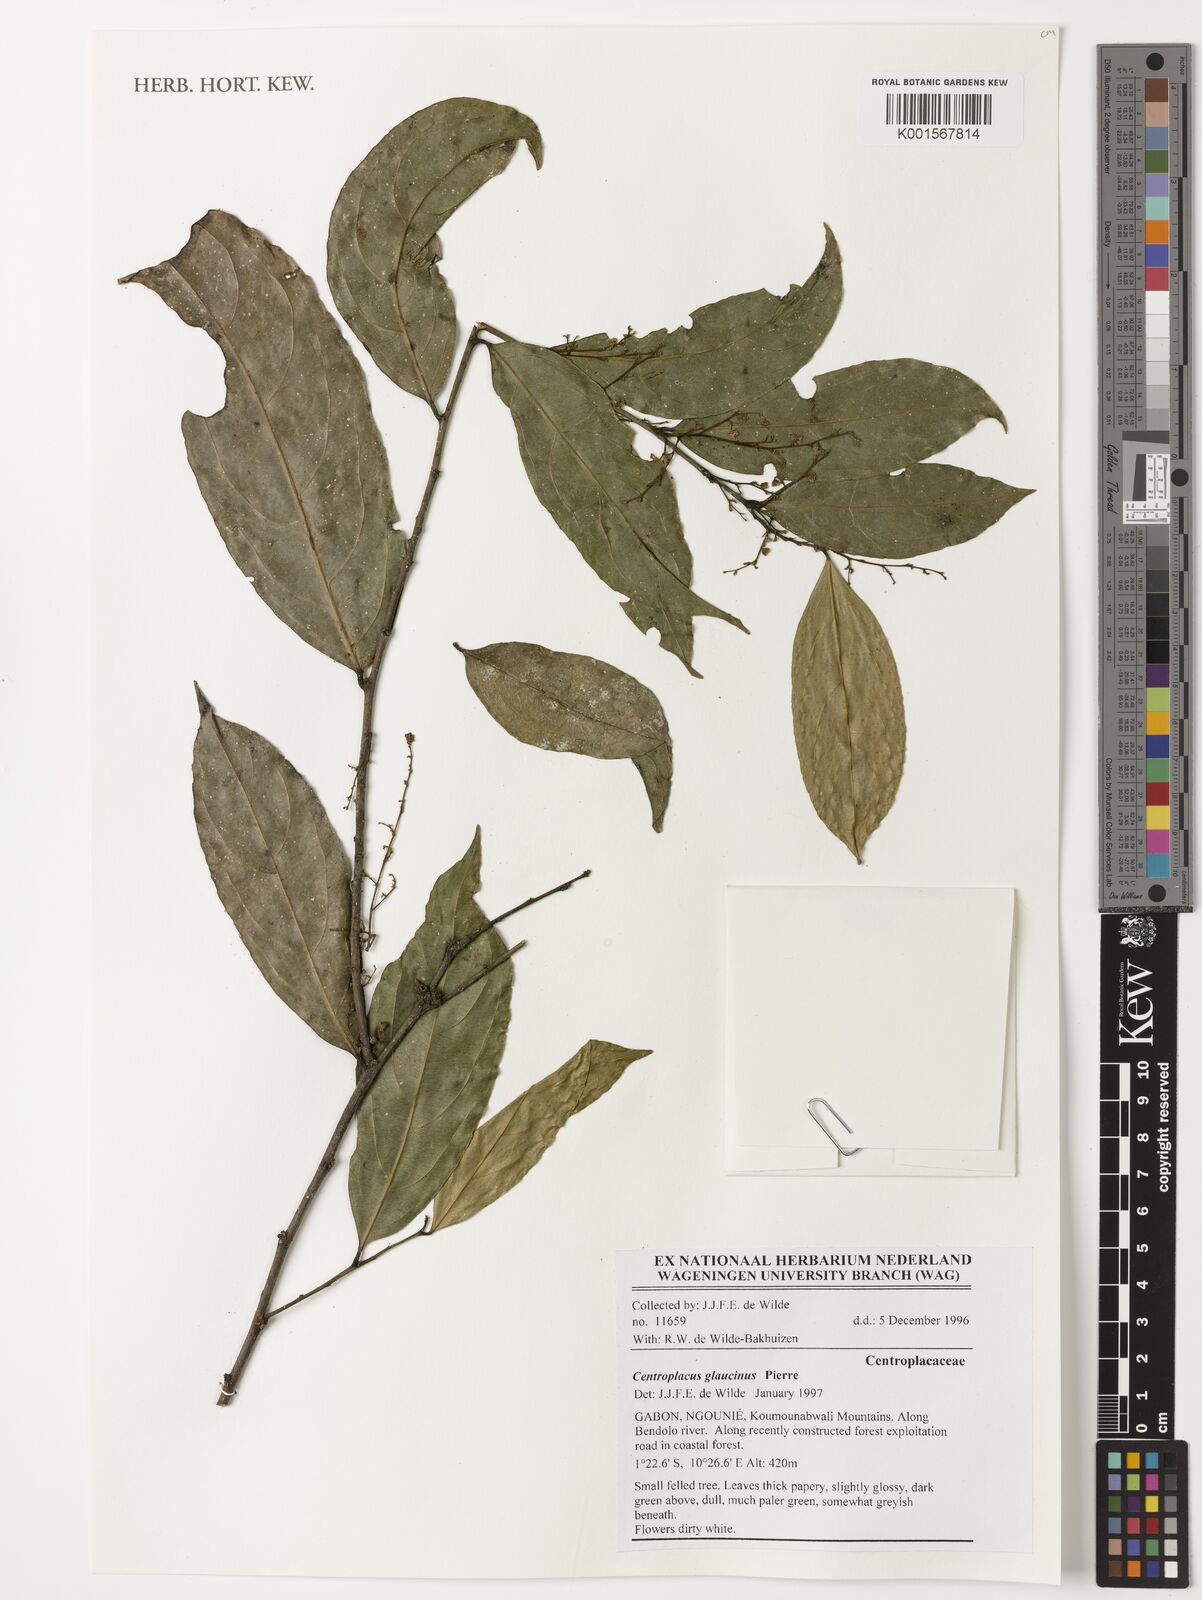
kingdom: Plantae
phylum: Tracheophyta
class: Magnoliopsida
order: Malpighiales
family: Centroplacaceae
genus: Centroplacus
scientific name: Centroplacus glaucinus
